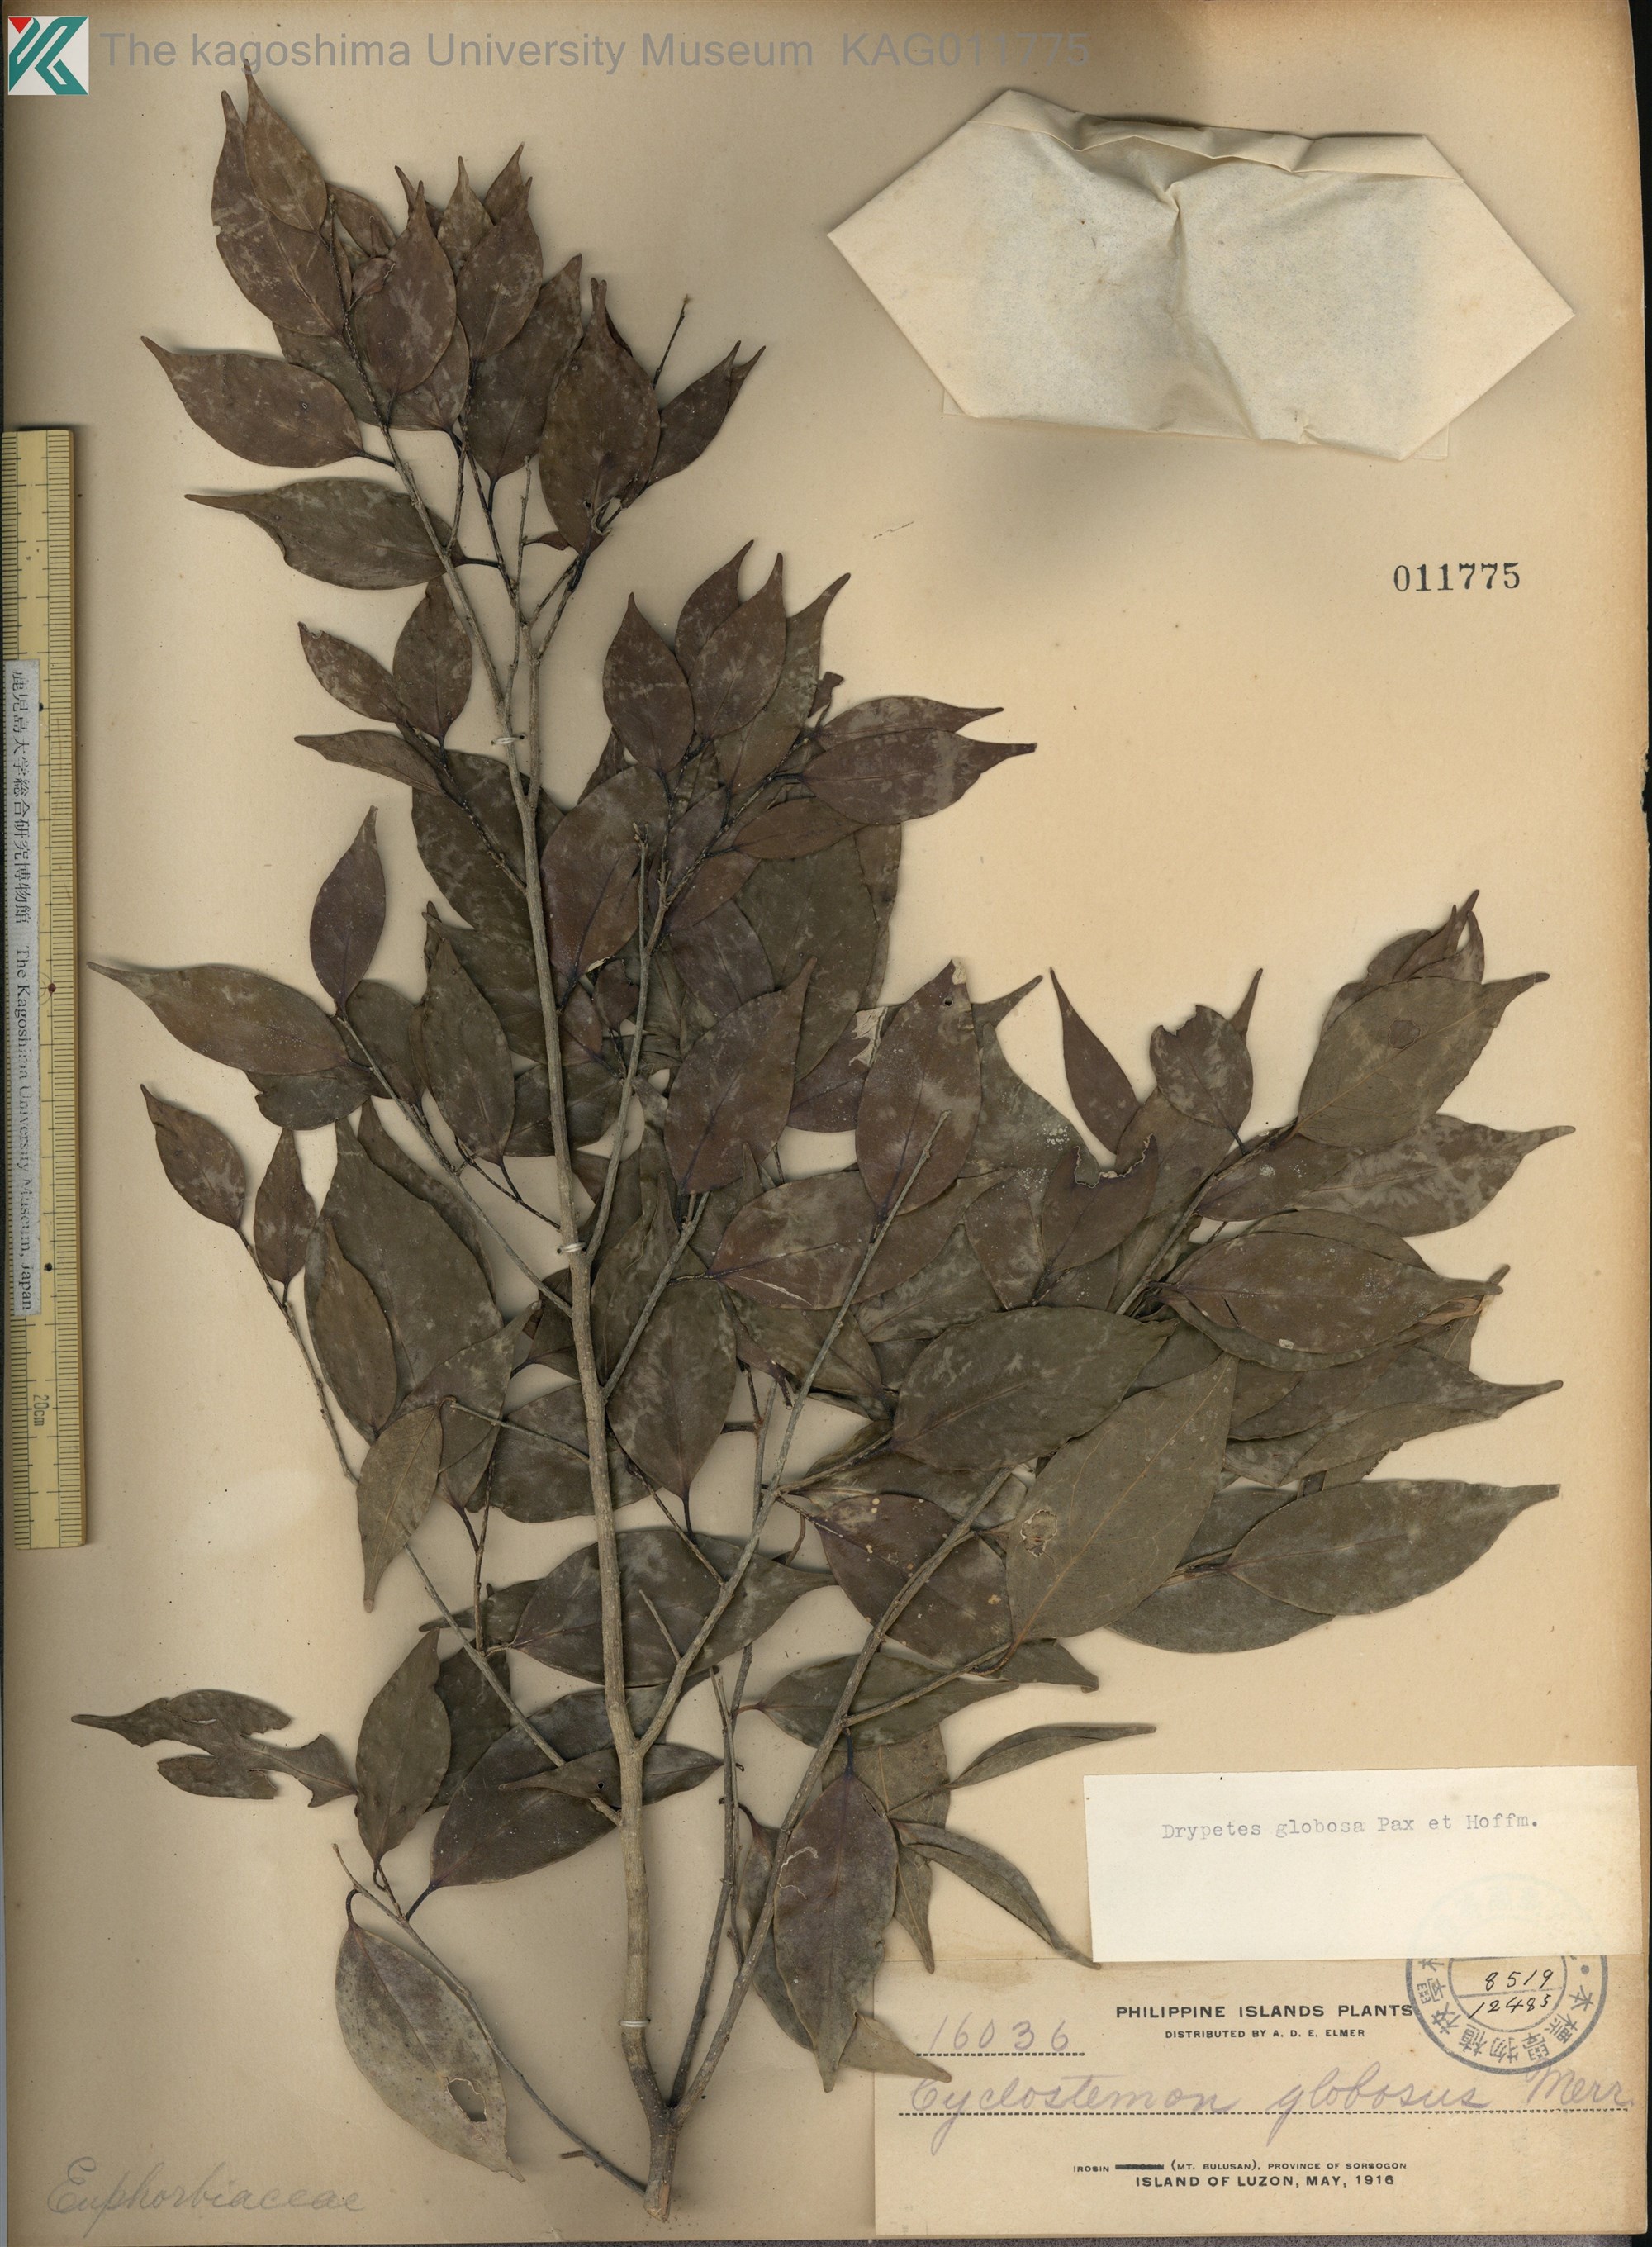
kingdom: Plantae
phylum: Tracheophyta
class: Magnoliopsida
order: Malpighiales
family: Putranjivaceae
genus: Drypetes
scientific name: Drypetes globosa
